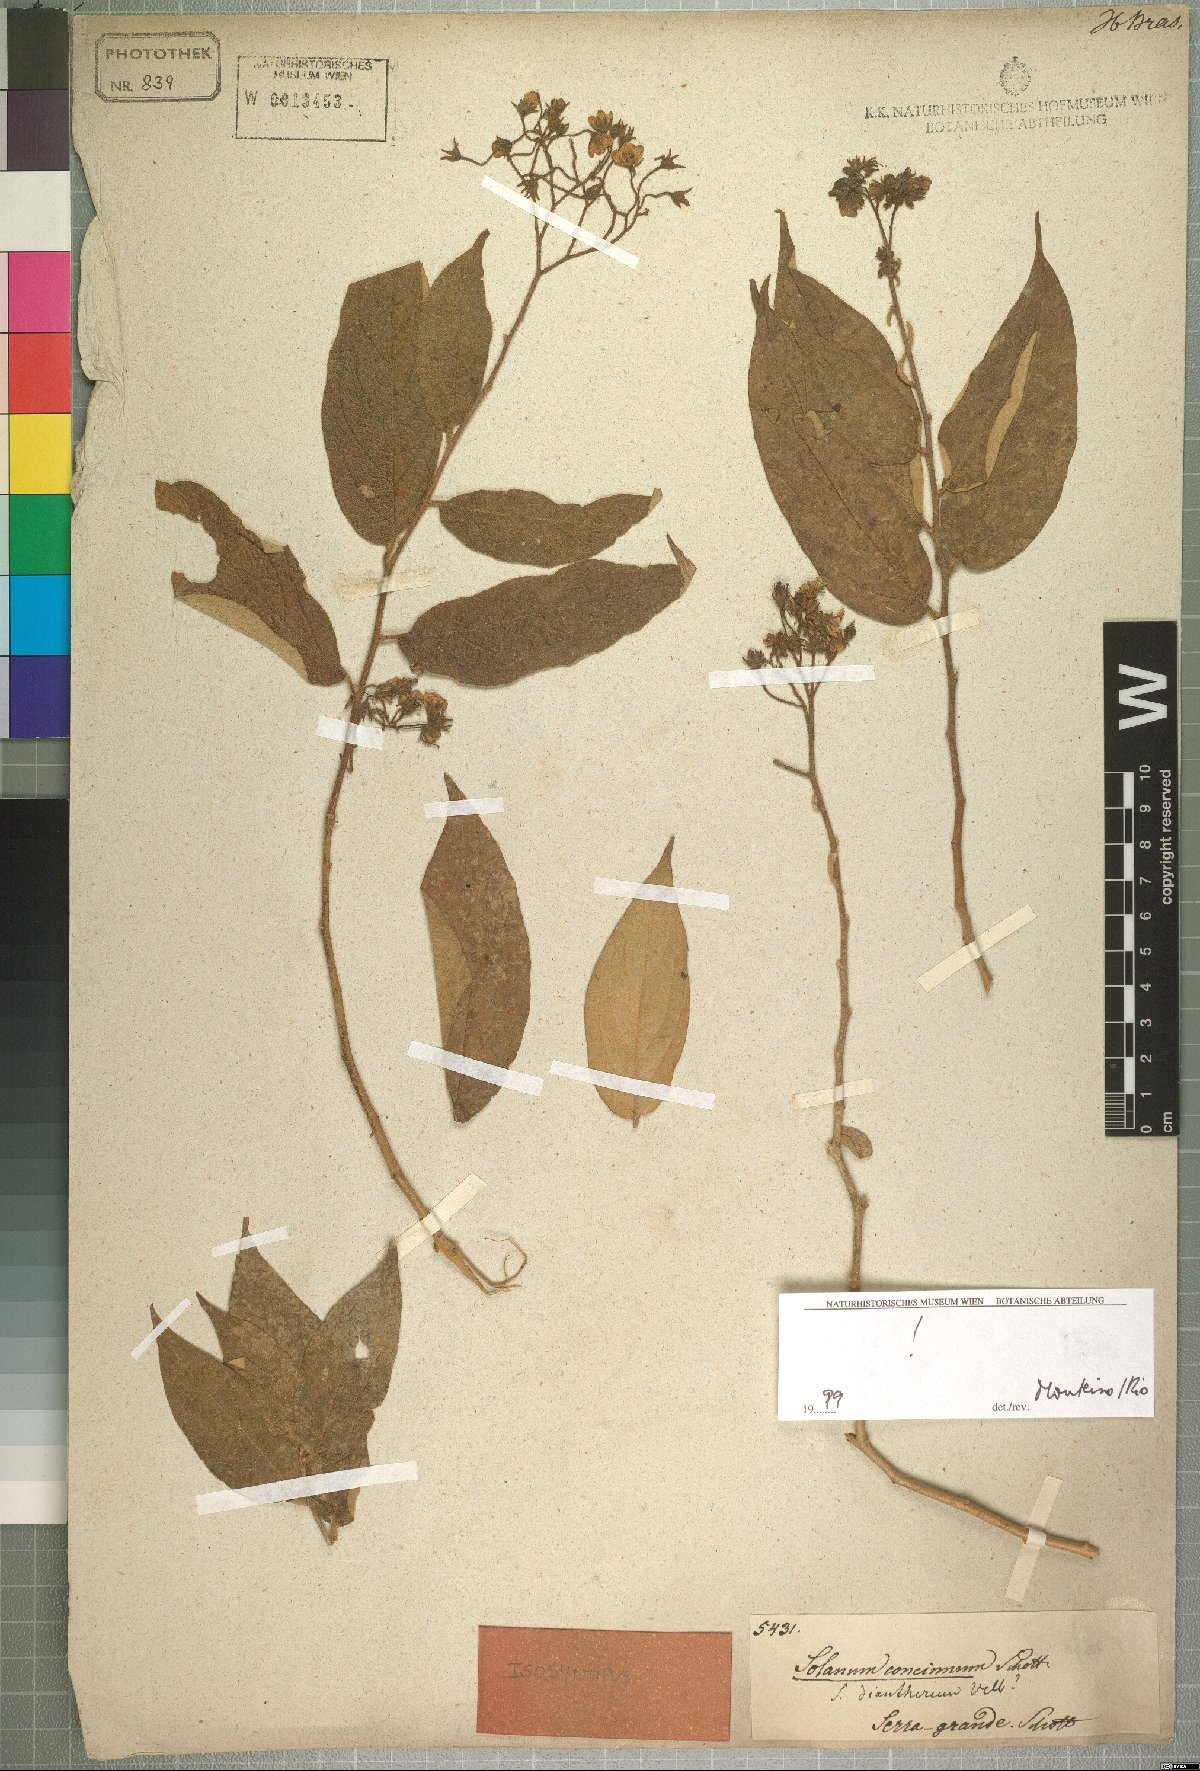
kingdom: Plantae
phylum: Tracheophyta
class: Magnoliopsida
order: Solanales
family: Solanaceae
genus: Solanum
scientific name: Solanum concinnum
